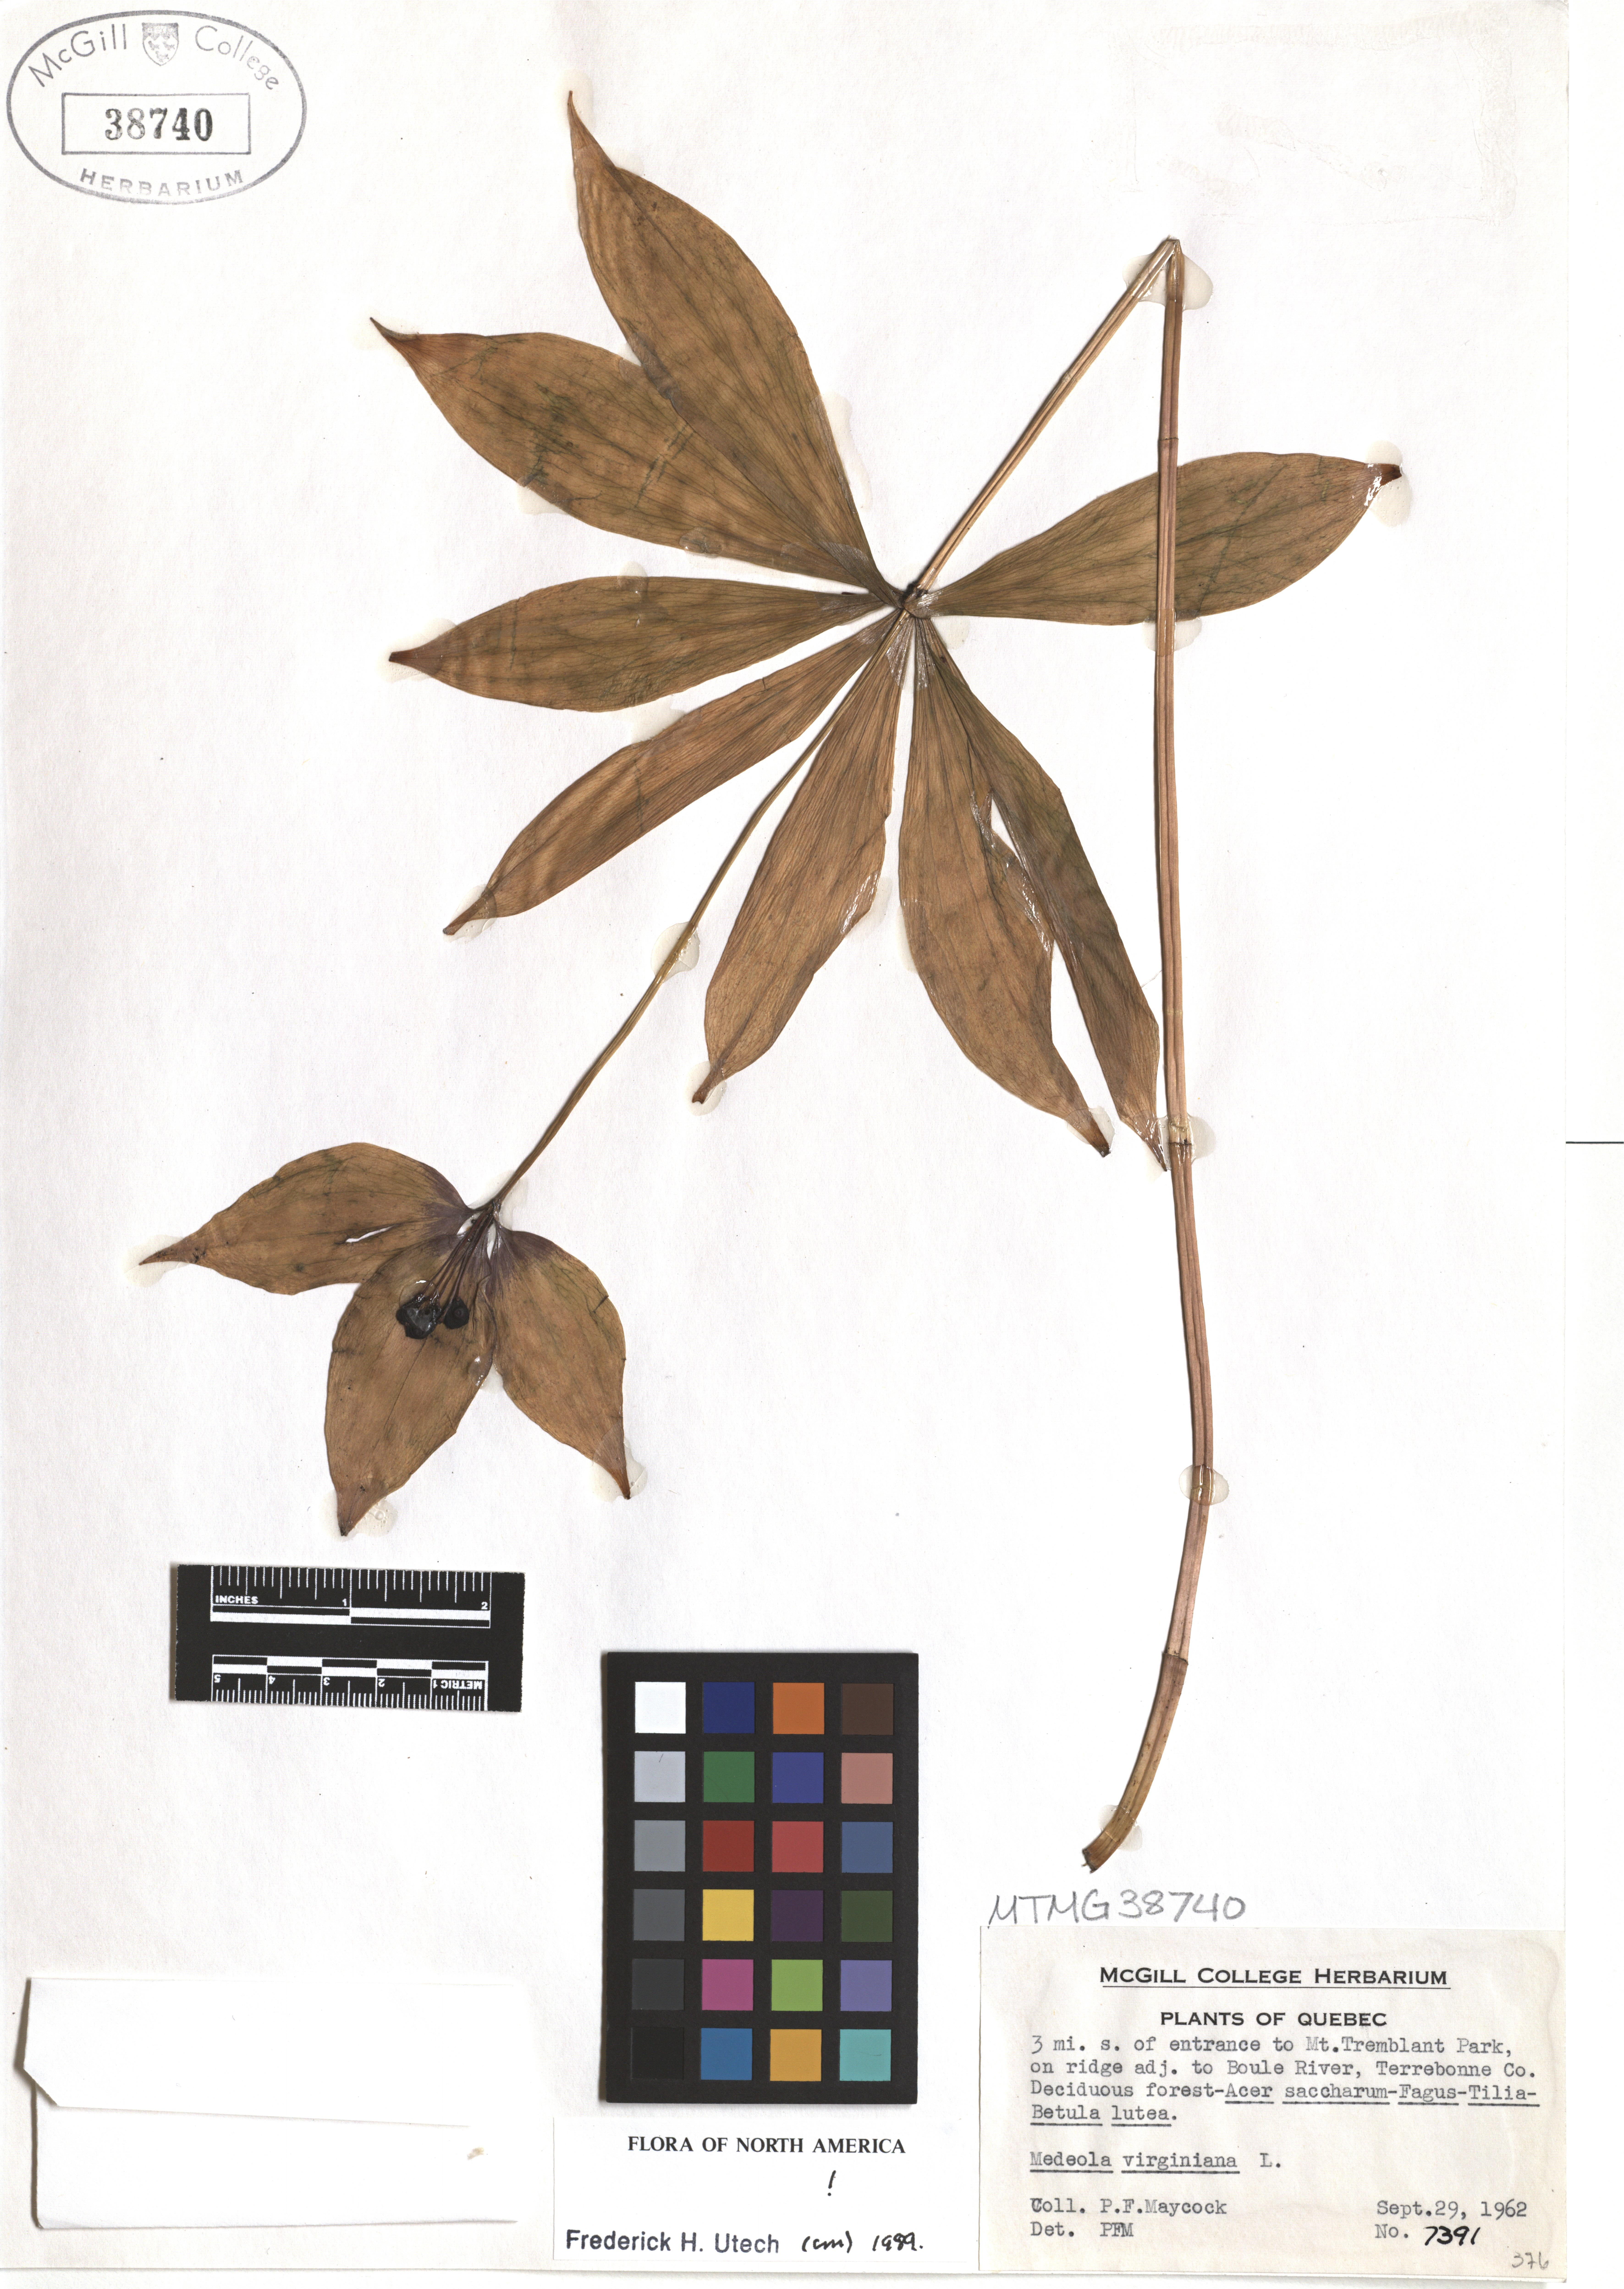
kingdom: Plantae
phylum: Tracheophyta
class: Liliopsida
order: Liliales
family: Liliaceae
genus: Medeola
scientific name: Medeola virginiana
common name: Indian cucumber-root
